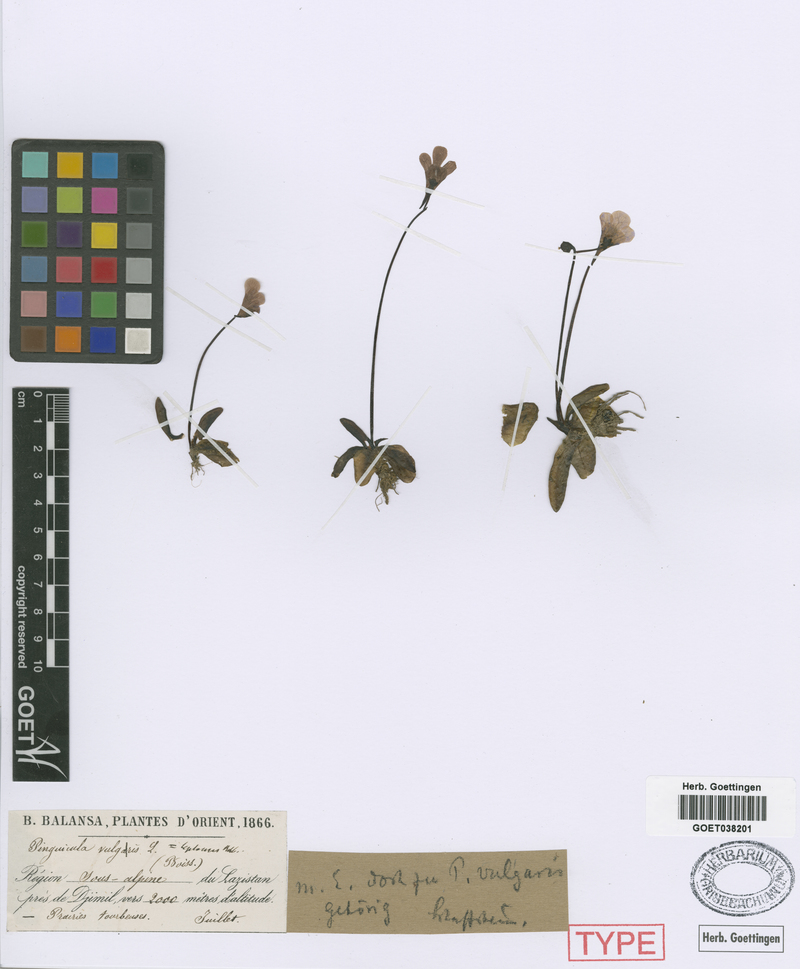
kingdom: Plantae
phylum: Tracheophyta
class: Magnoliopsida
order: Lamiales
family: Lentibulariaceae
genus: Pinguicula
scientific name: Pinguicula vulgaris
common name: Common butterwort
